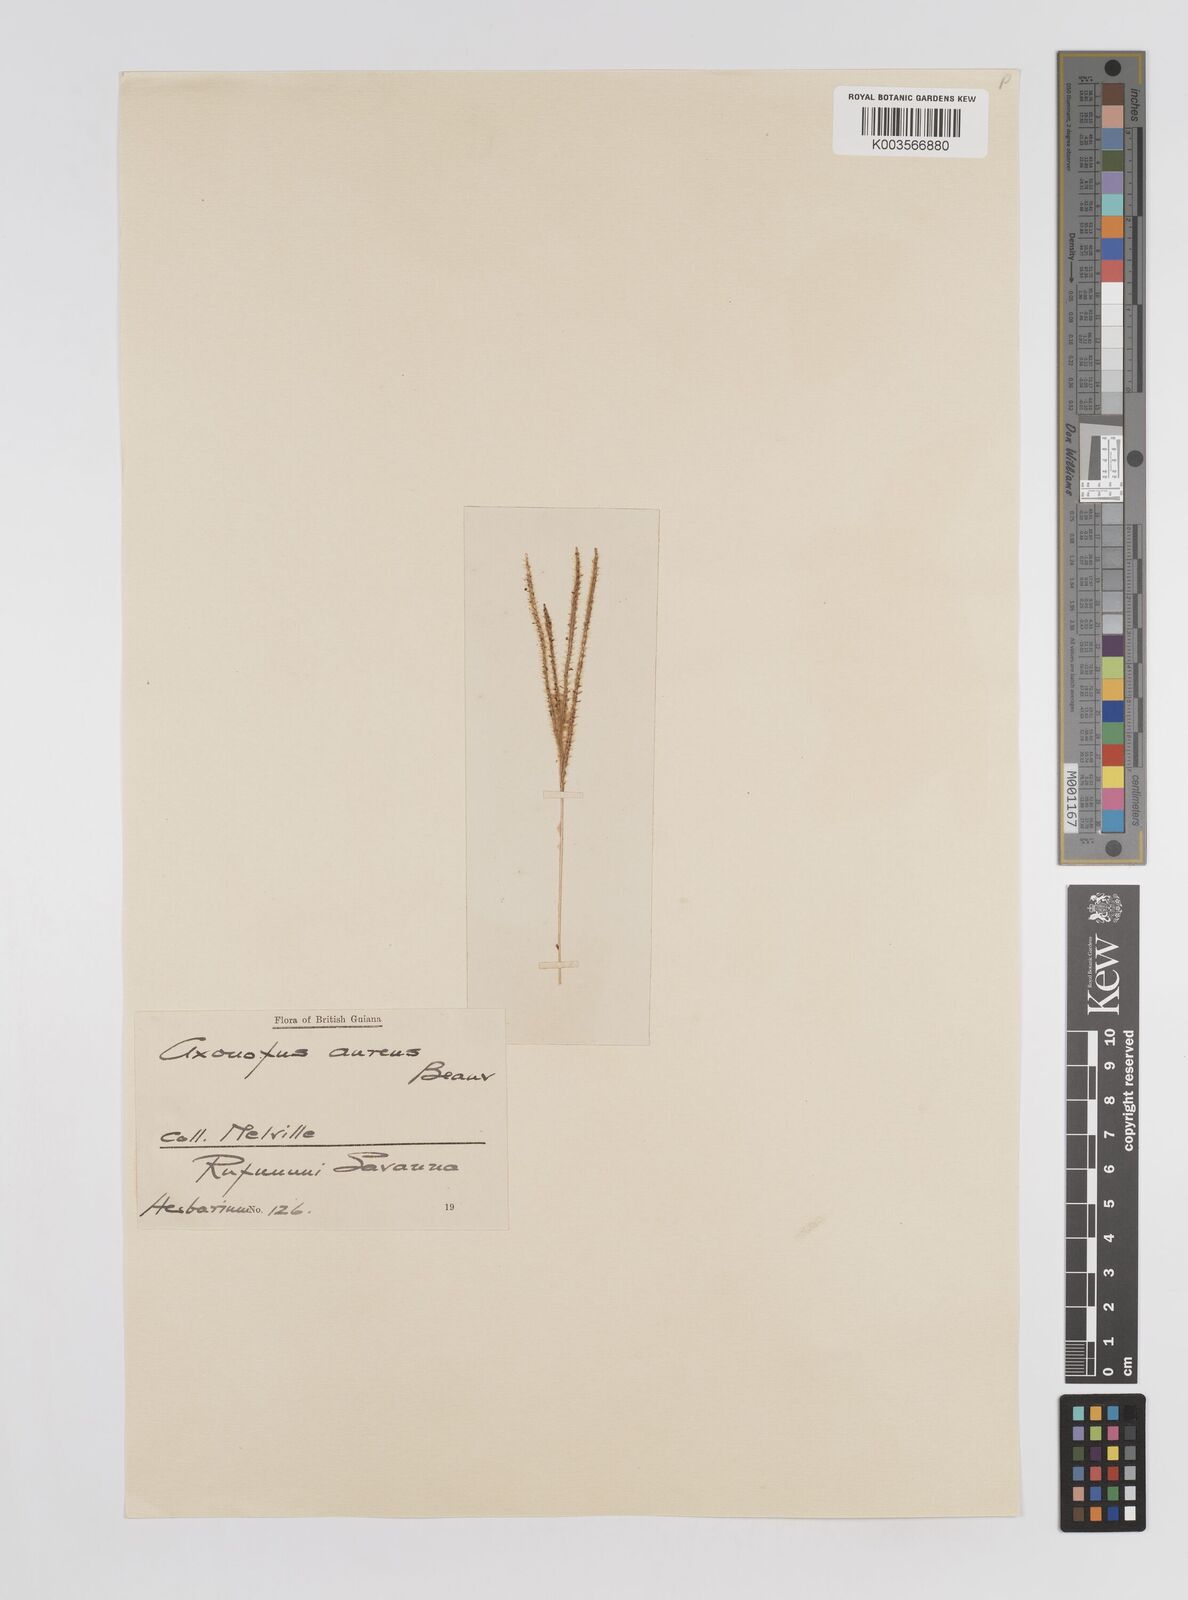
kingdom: Plantae
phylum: Tracheophyta
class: Liliopsida
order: Poales
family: Poaceae
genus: Axonopus
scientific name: Axonopus aureus
